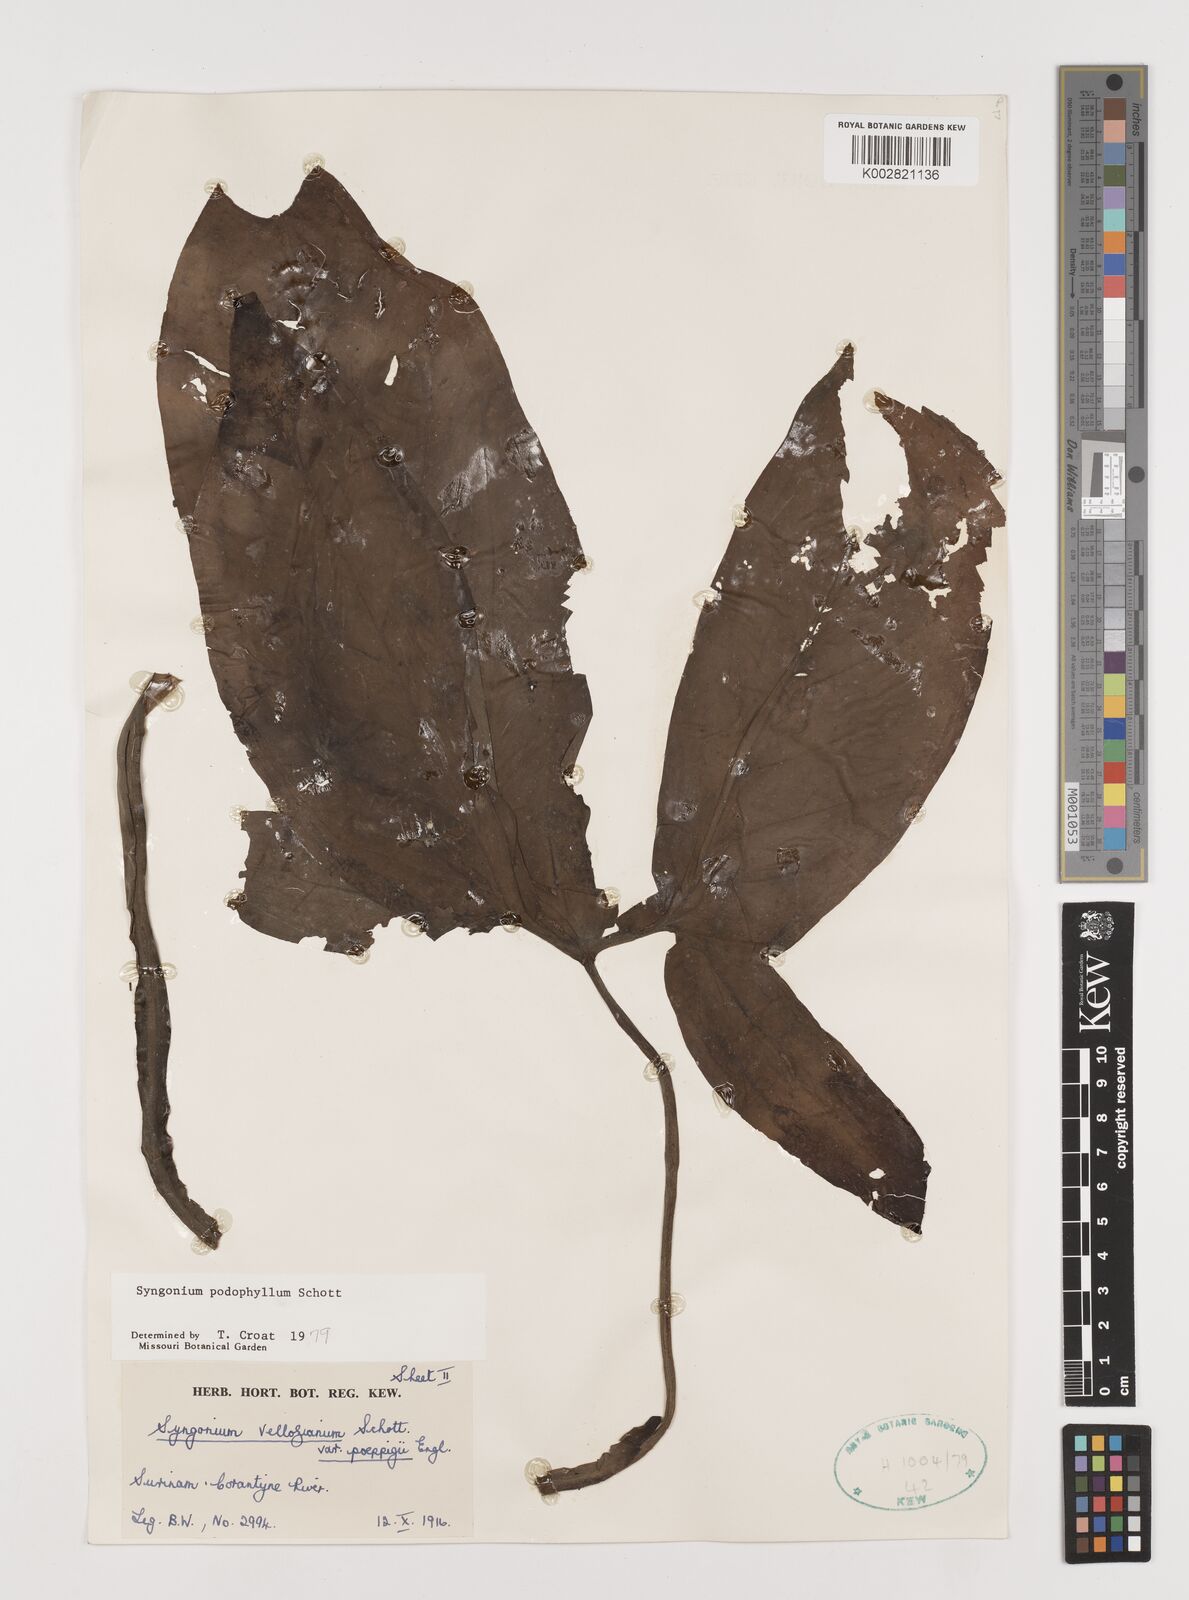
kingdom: Plantae
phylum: Tracheophyta
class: Liliopsida
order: Alismatales
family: Araceae
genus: Syngonium
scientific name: Syngonium podophyllum
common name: American evergreen
